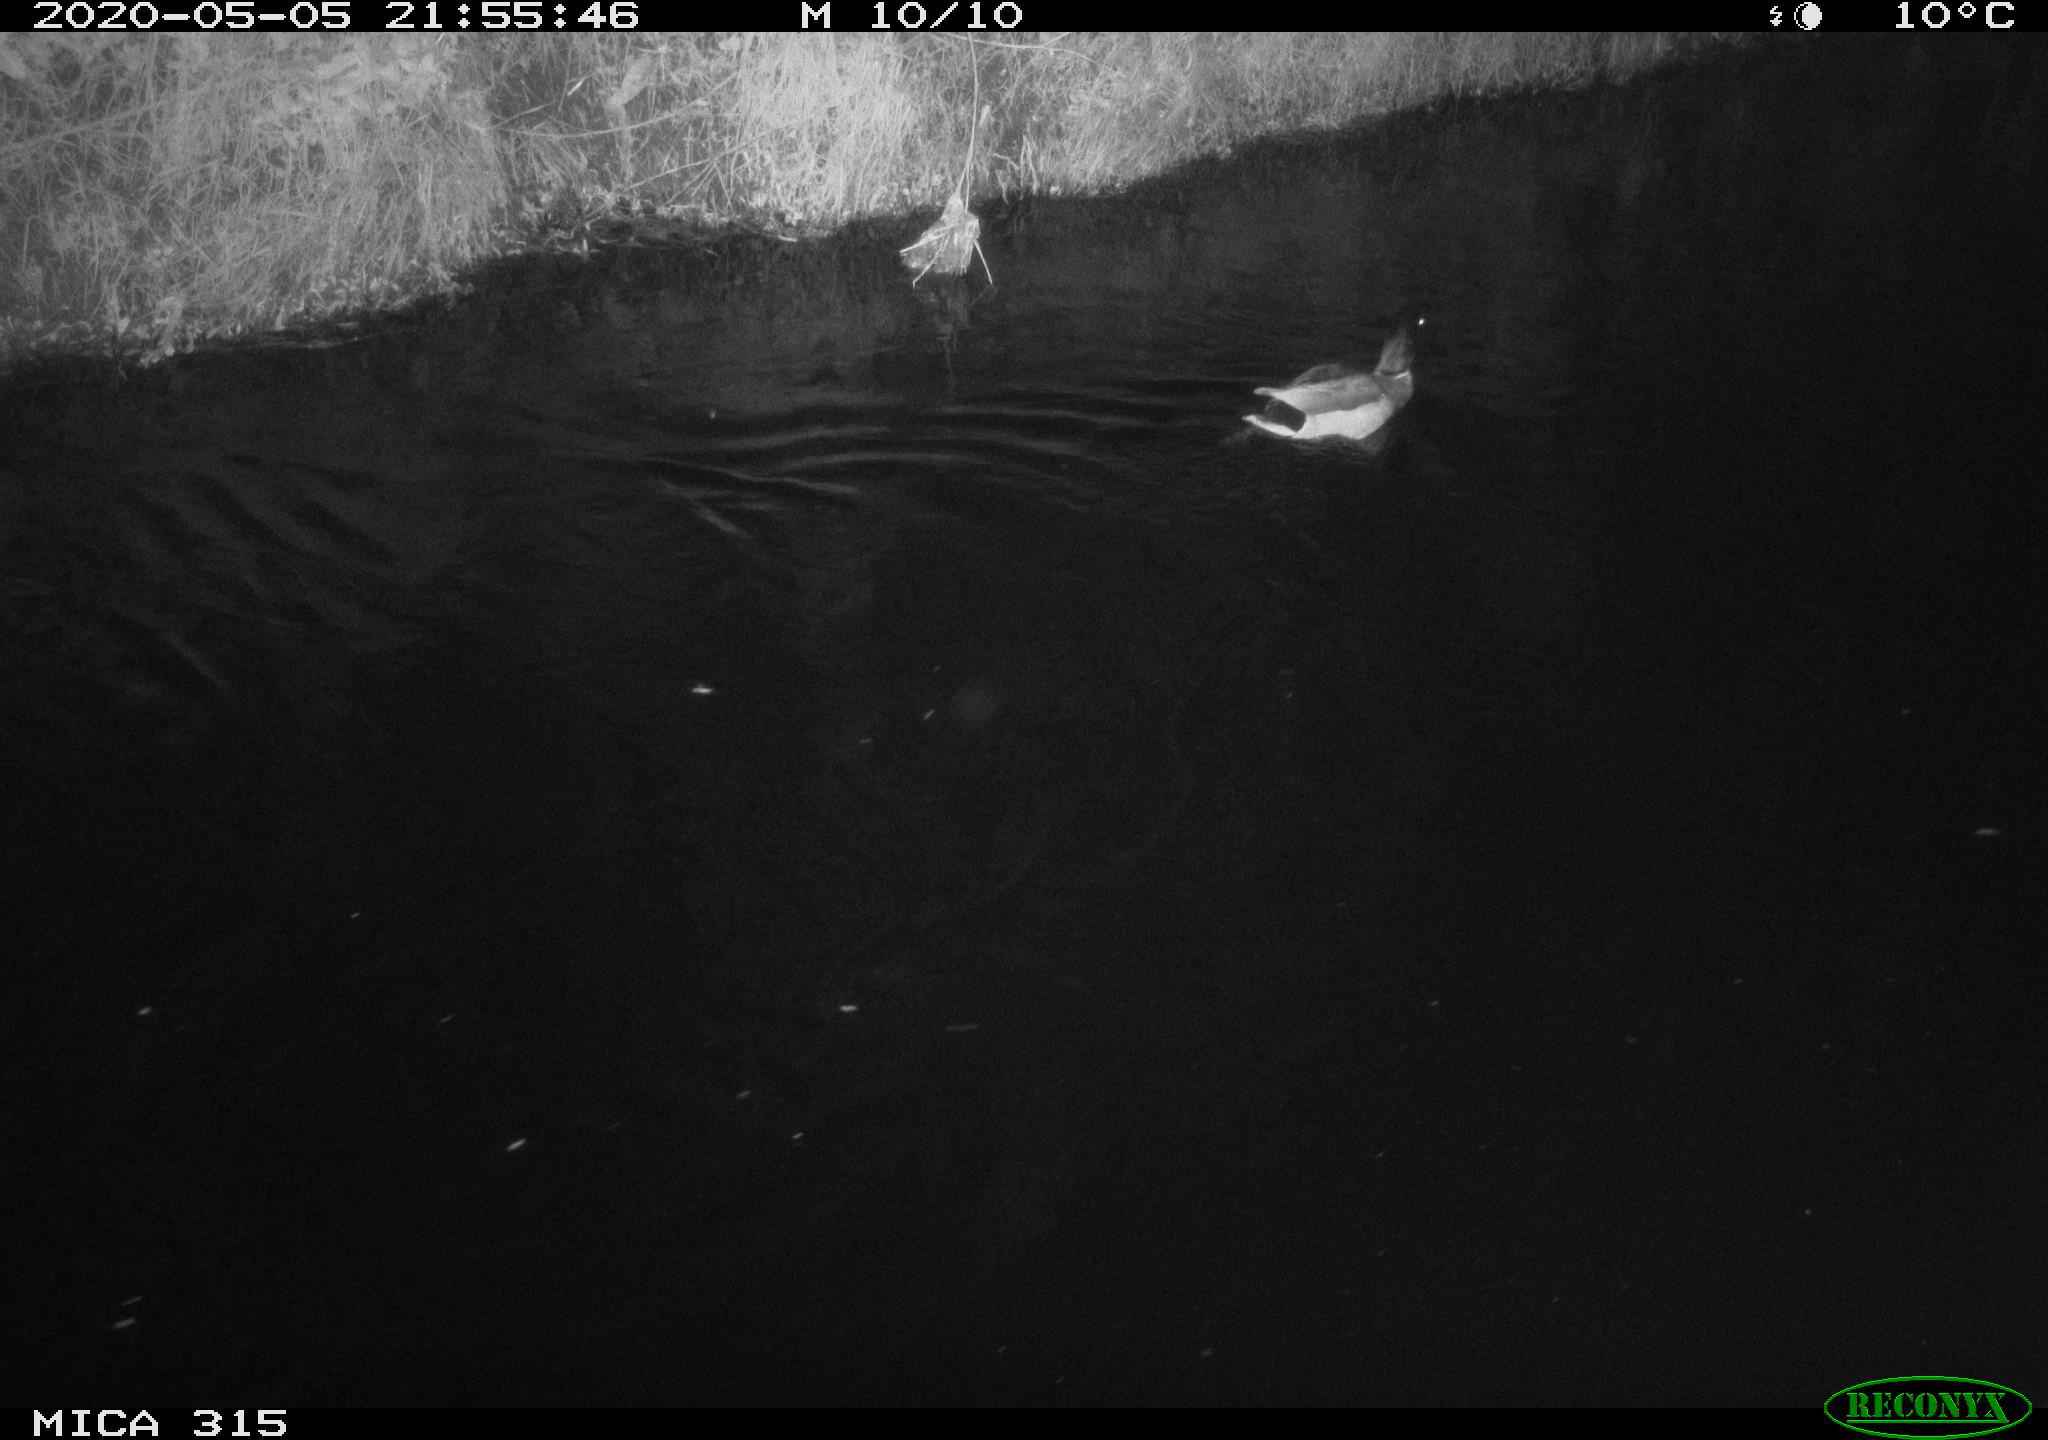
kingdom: Animalia
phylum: Chordata
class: Aves
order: Anseriformes
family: Anatidae
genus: Anas
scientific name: Anas platyrhynchos
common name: Mallard
